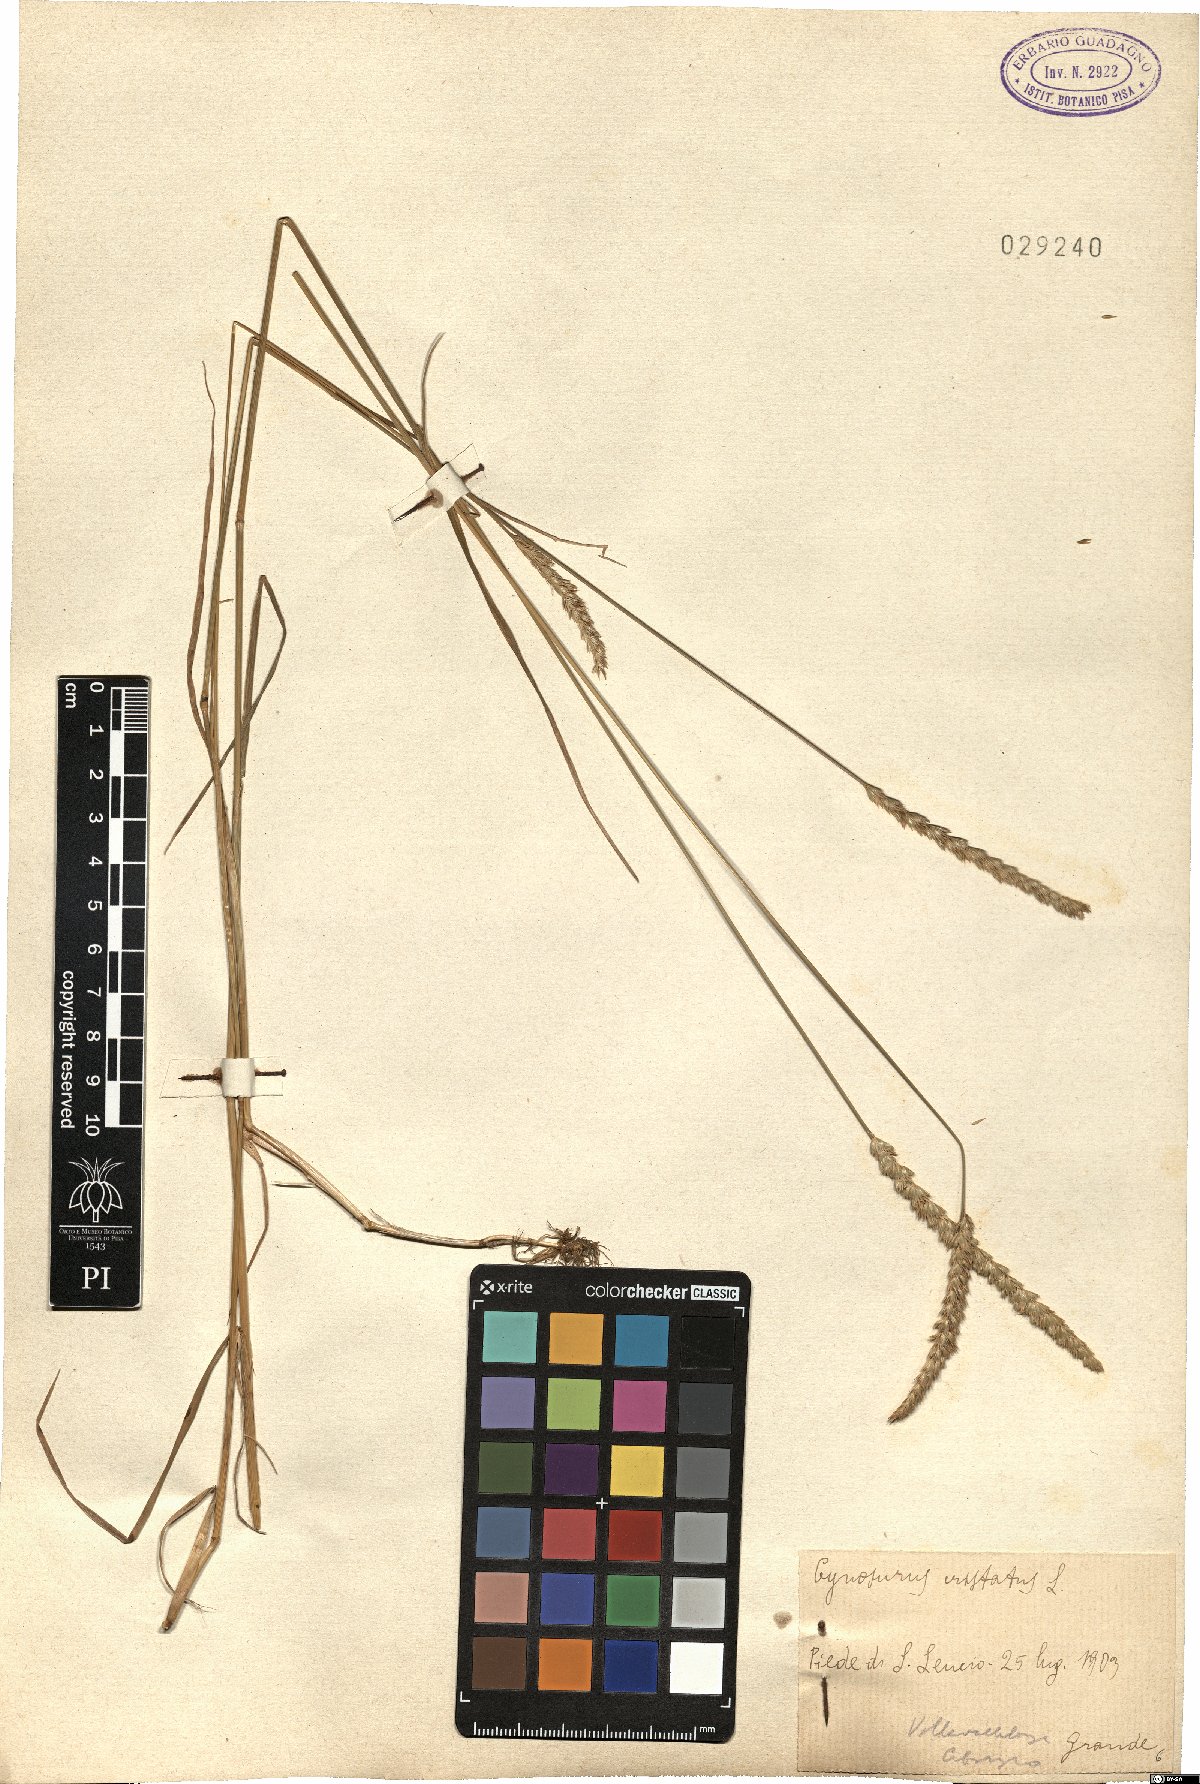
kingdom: Plantae
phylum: Tracheophyta
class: Liliopsida
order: Poales
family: Poaceae
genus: Cynosurus
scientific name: Cynosurus cristatus
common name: Crested dog's-tail
